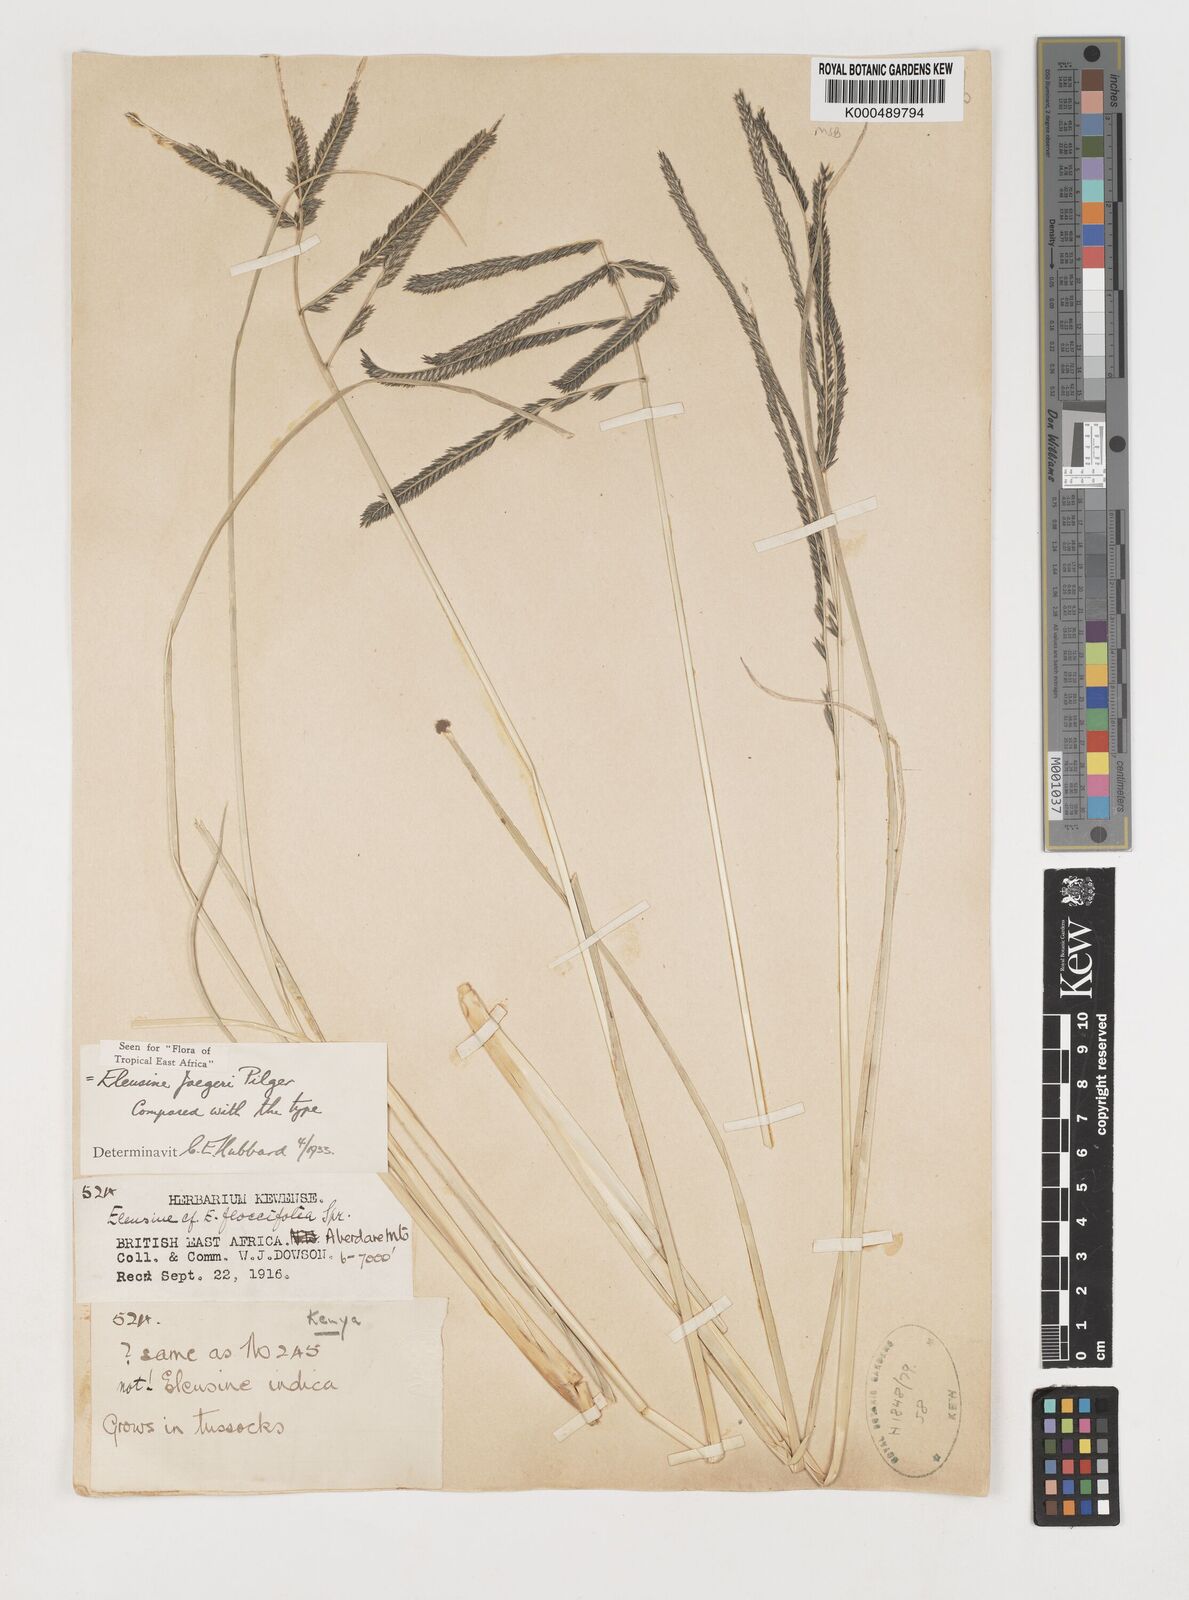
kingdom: Plantae
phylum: Tracheophyta
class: Liliopsida
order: Poales
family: Poaceae
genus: Eleusine
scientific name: Eleusine jaegeri
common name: Manyatta grass
